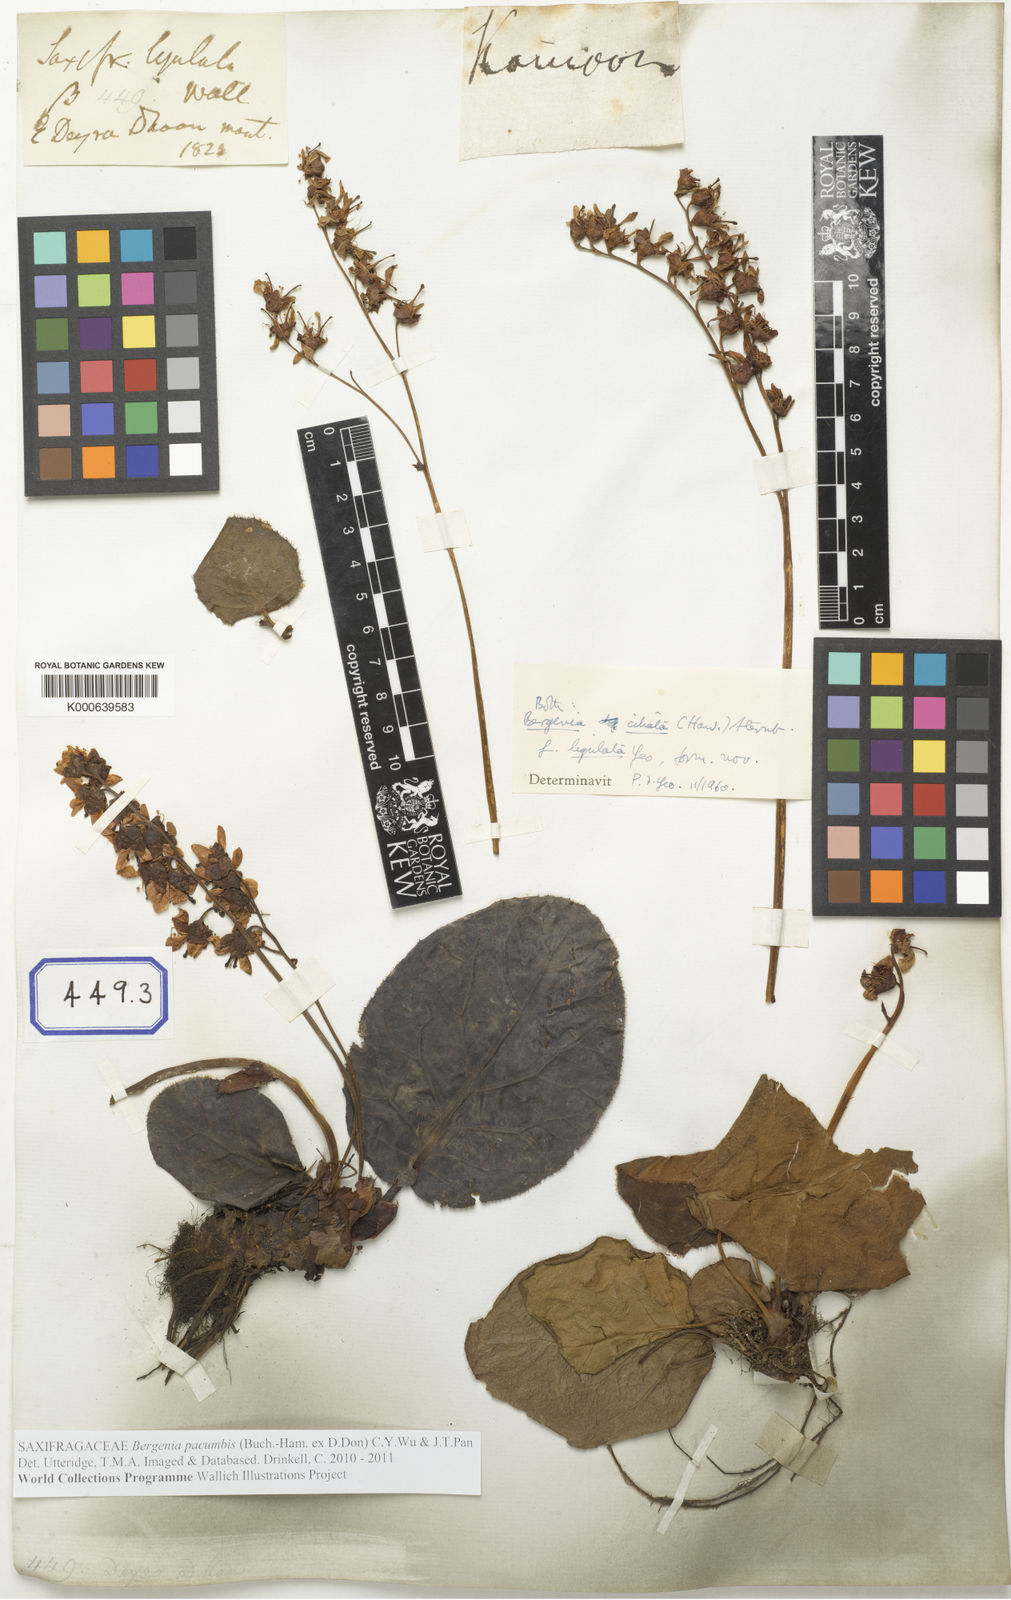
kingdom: Plantae
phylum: Tracheophyta
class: Magnoliopsida
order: Saxifragales
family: Saxifragaceae
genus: Bergenia
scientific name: Bergenia pacumbis
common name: Chinese bergenia
